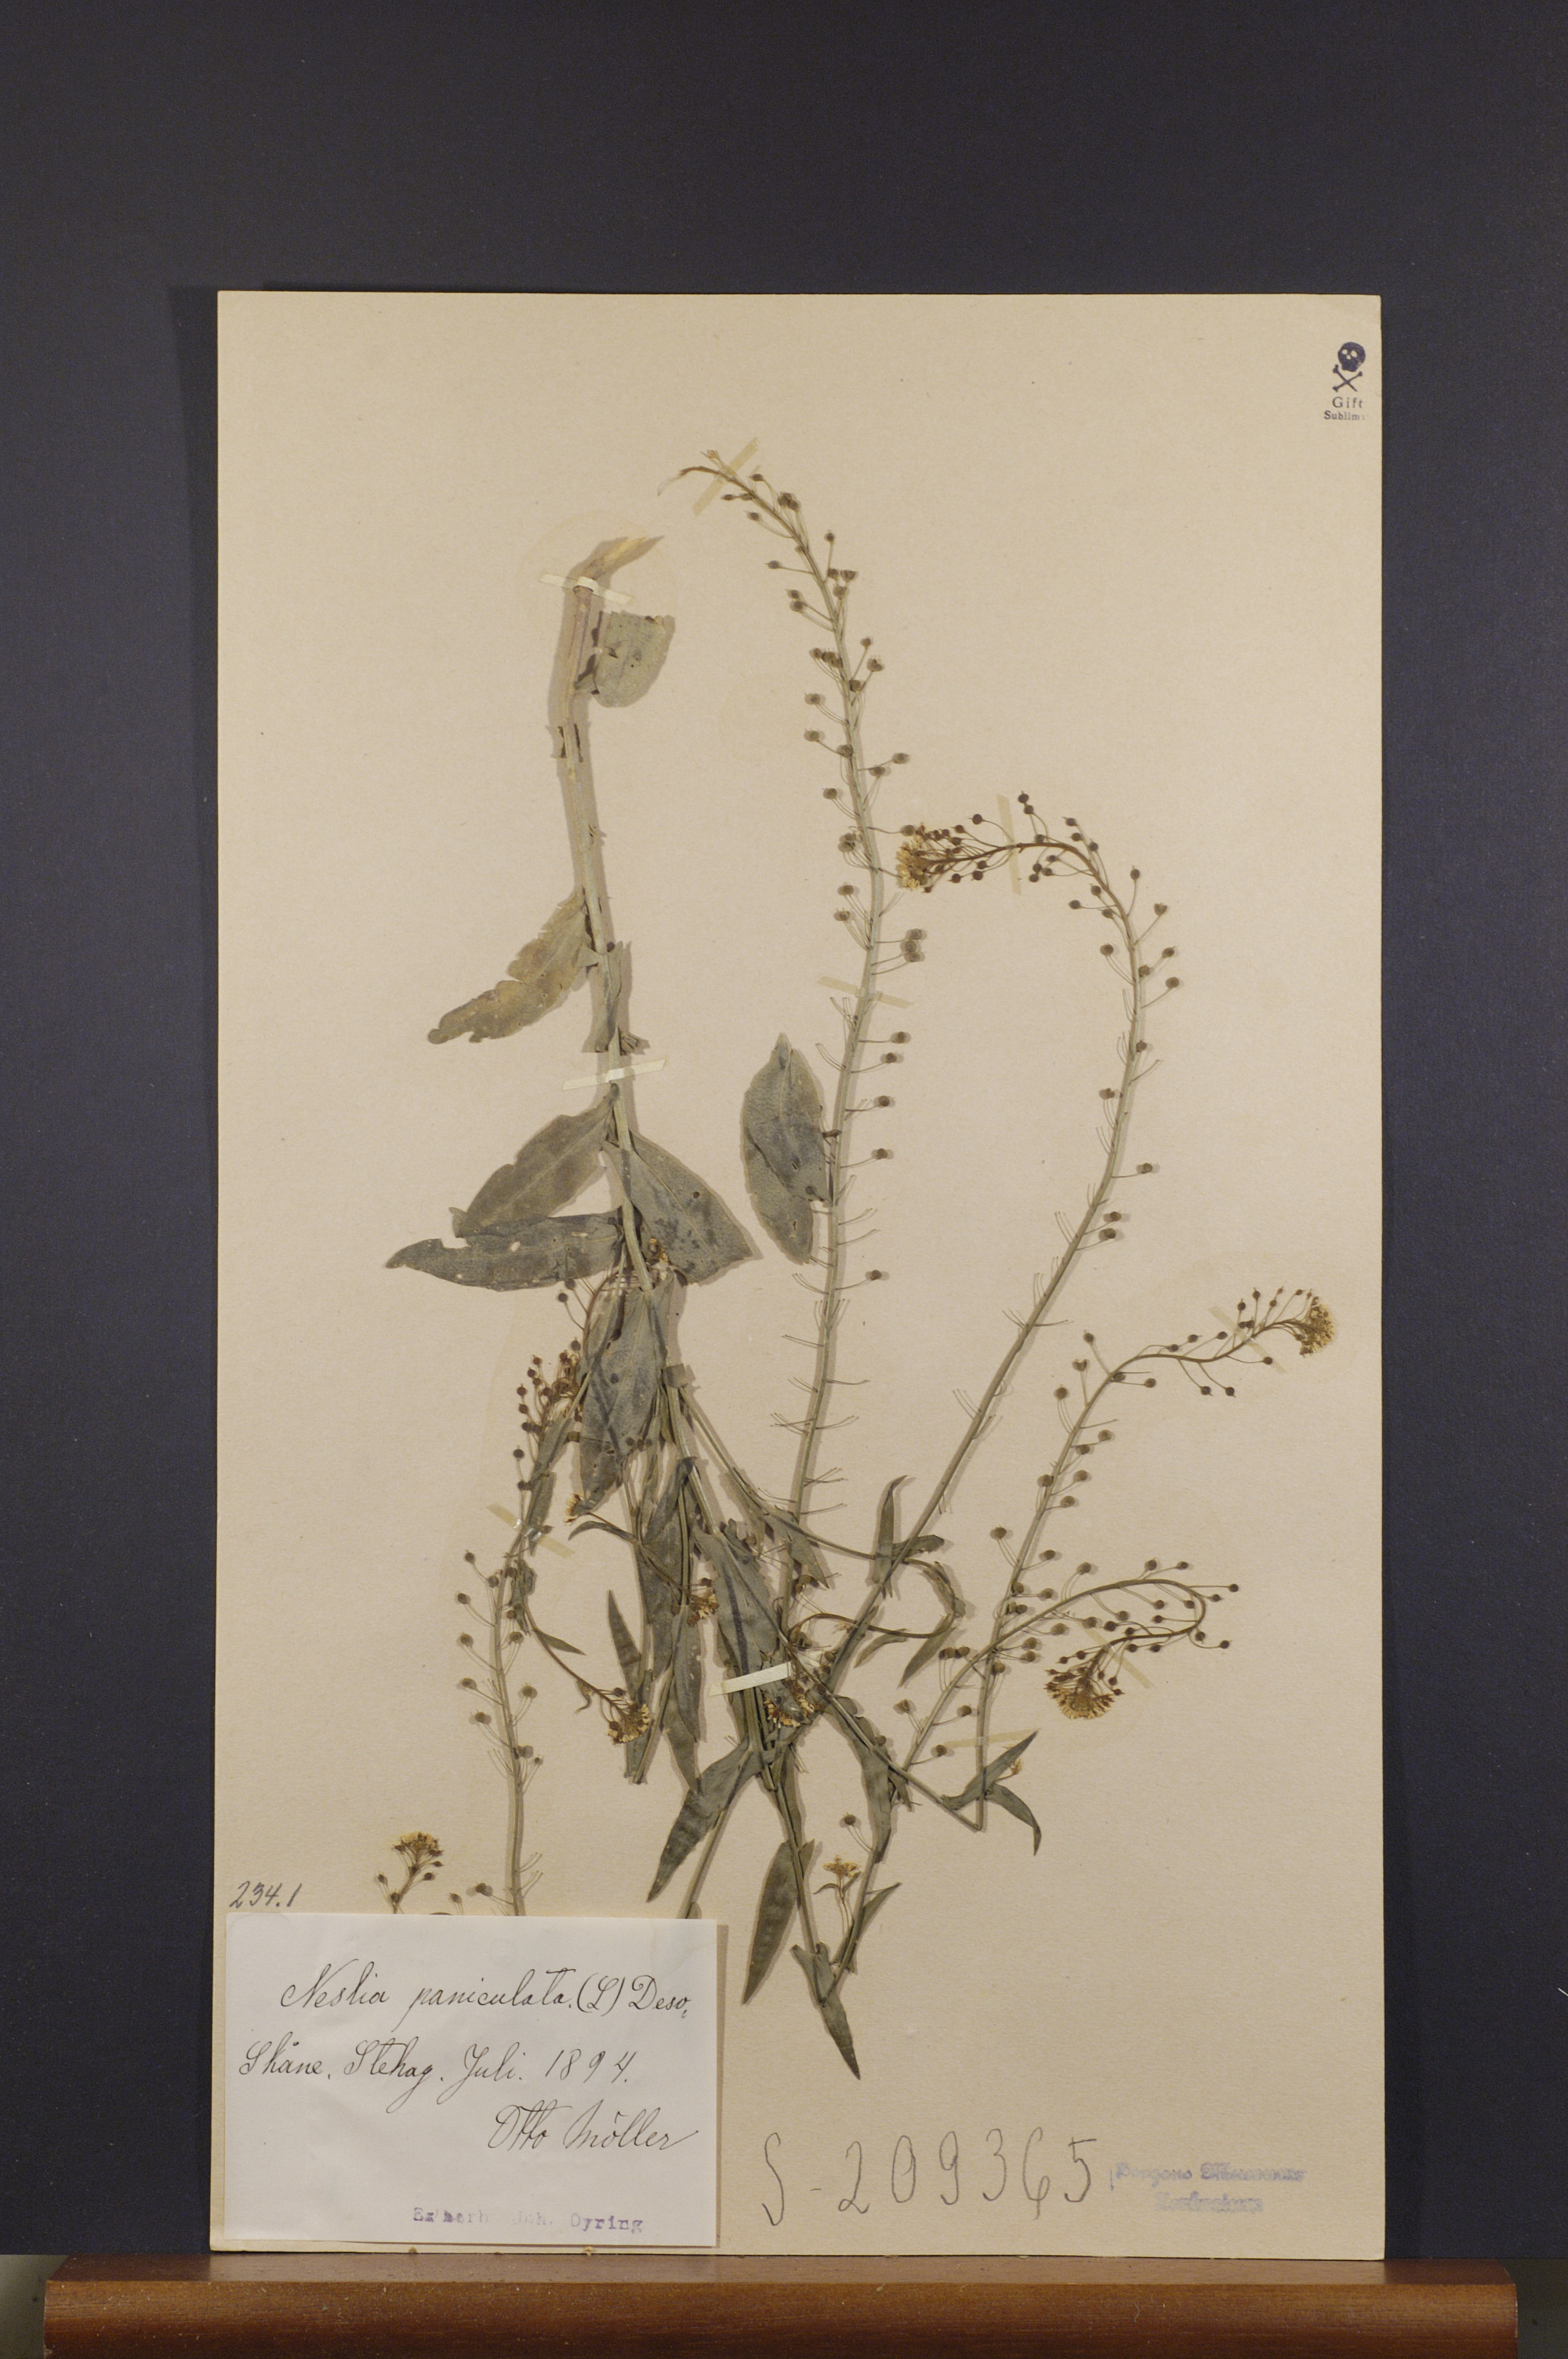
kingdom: Plantae
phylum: Tracheophyta
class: Magnoliopsida
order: Brassicales
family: Brassicaceae
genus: Neslia
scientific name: Neslia paniculata
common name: Ball mustard
